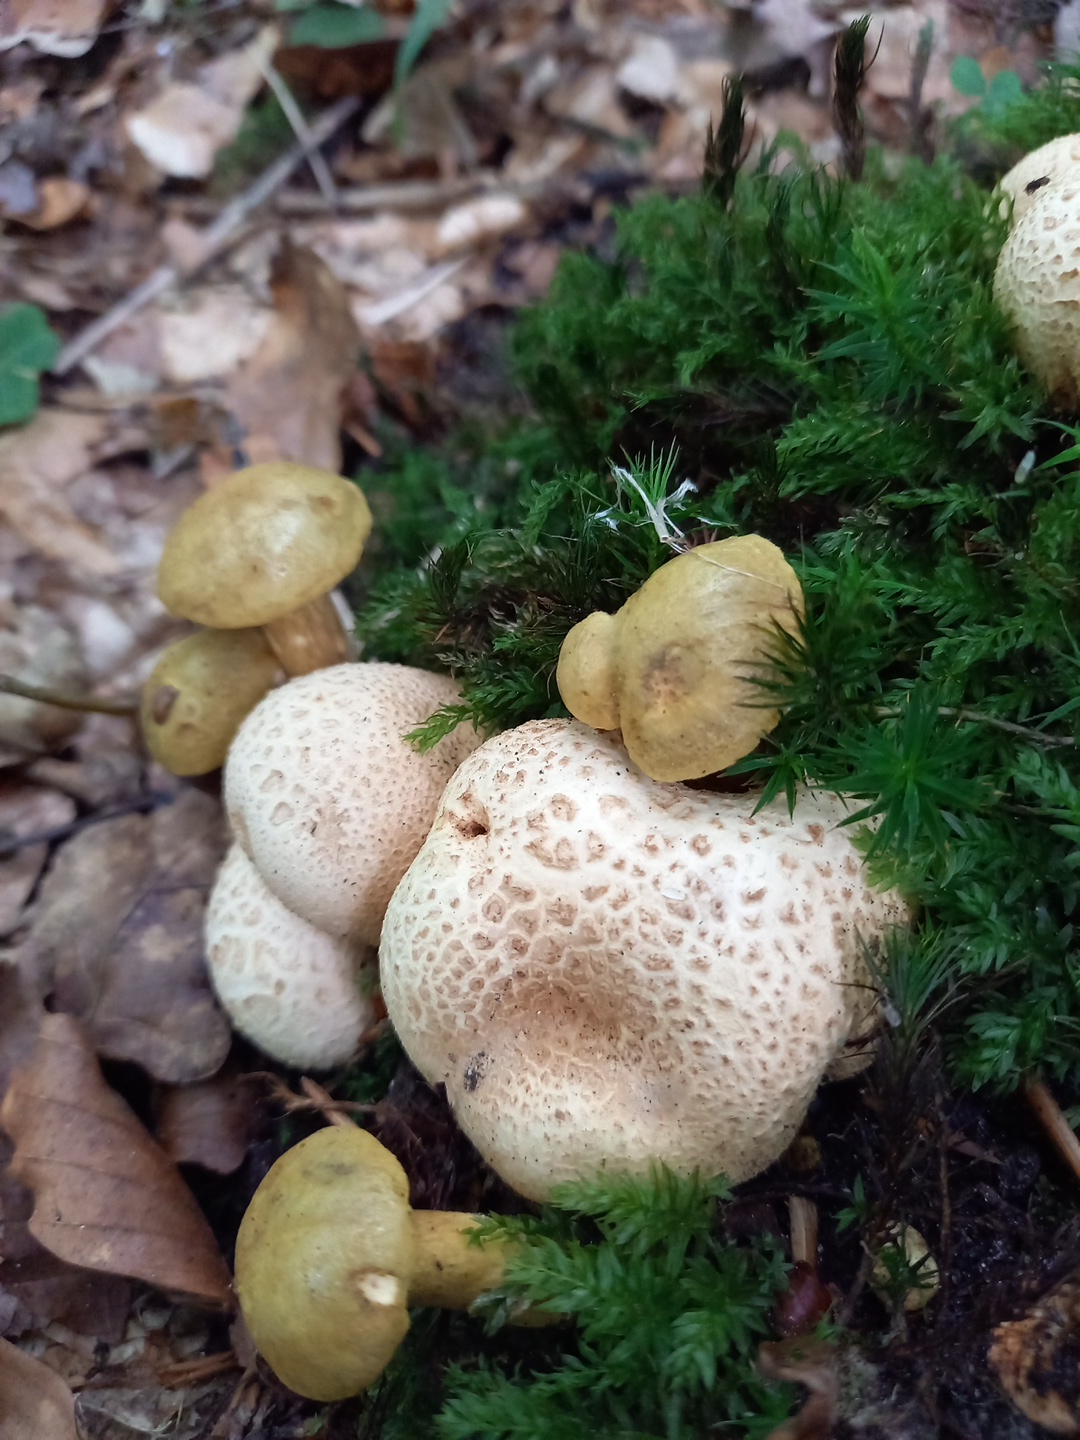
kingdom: Fungi
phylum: Basidiomycota
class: Agaricomycetes
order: Boletales
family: Boletaceae
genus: Pseudoboletus
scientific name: Pseudoboletus parasiticus
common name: snyltende rørhat
